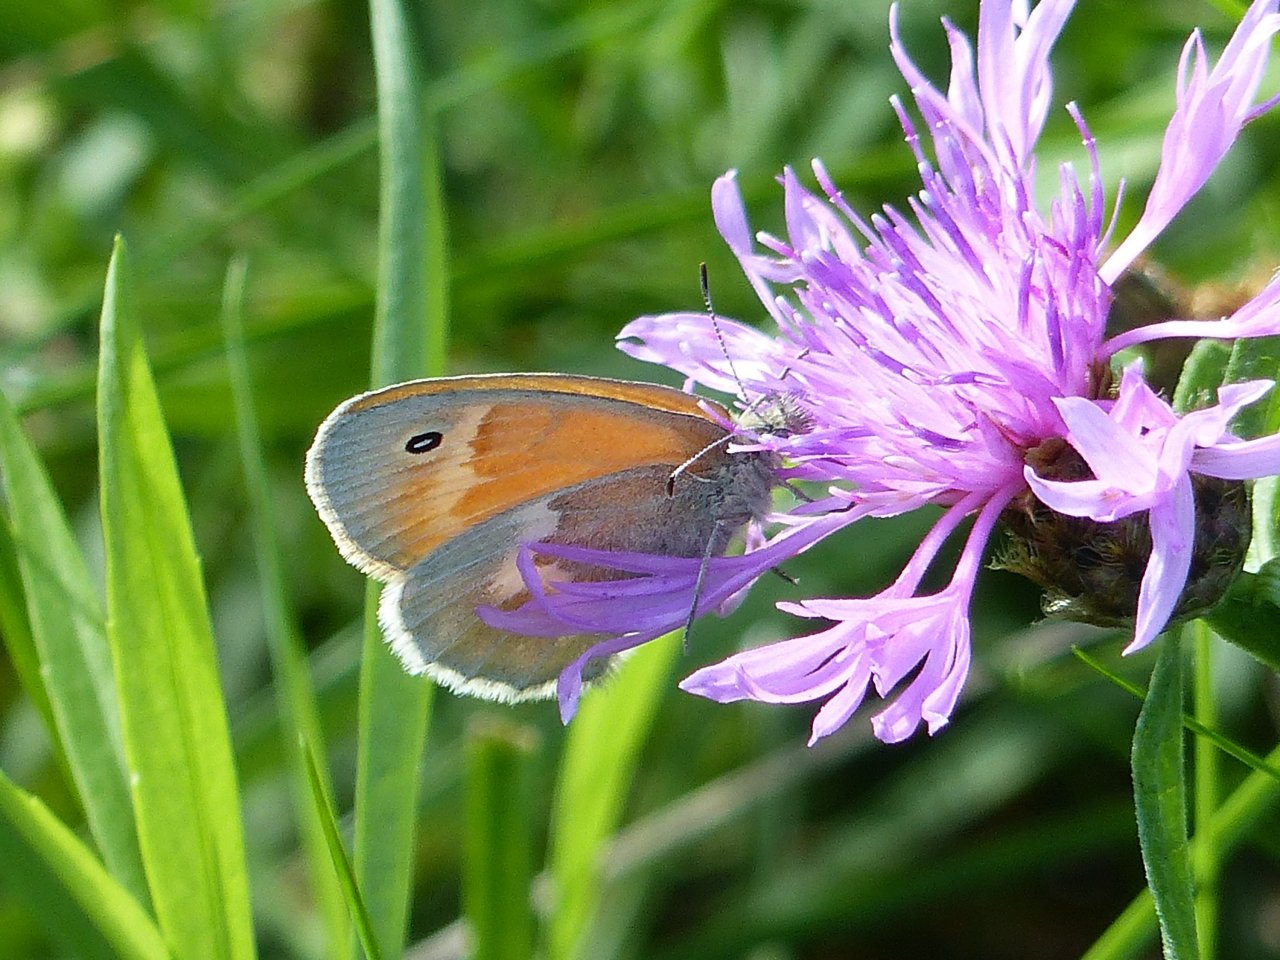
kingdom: Animalia
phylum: Arthropoda
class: Insecta
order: Lepidoptera
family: Nymphalidae
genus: Coenonympha
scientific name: Coenonympha tullia
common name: Large Heath
